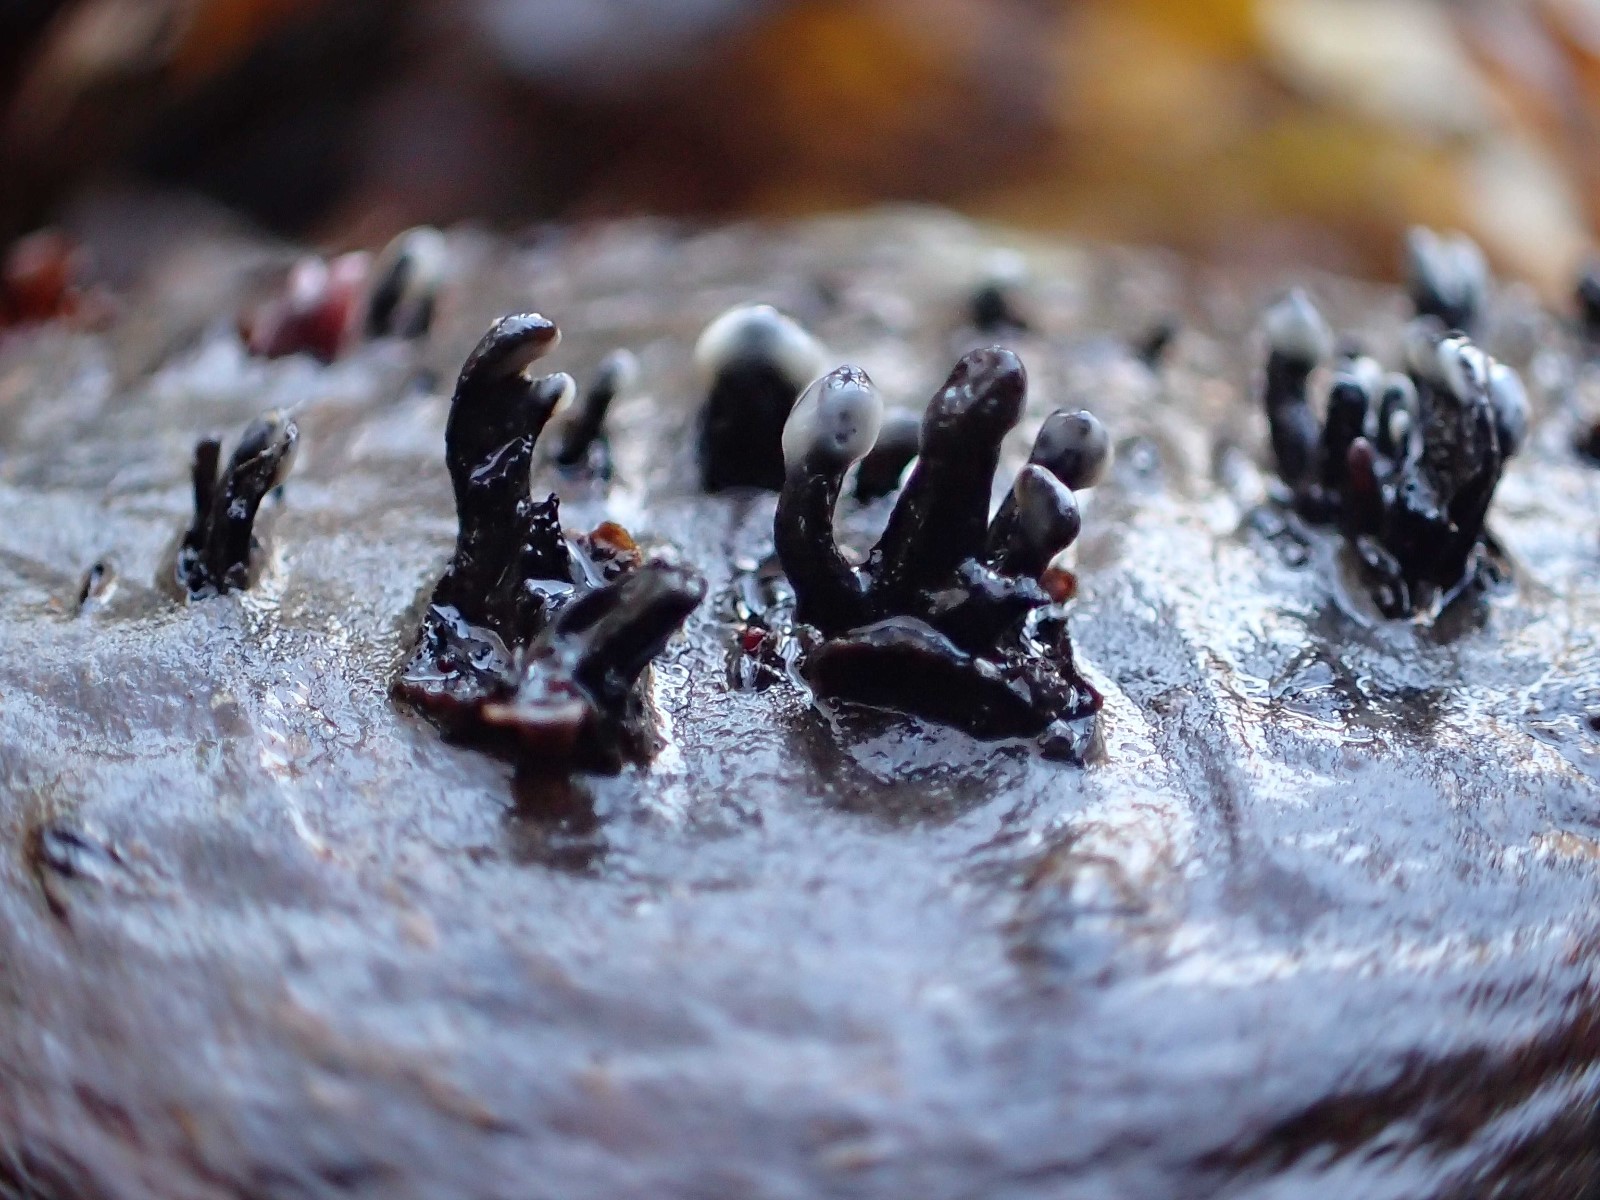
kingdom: Fungi
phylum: Ascomycota
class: Leotiomycetes
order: Helotiales
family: Bulgariaceae
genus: Holwaya
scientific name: Holwaya mucida
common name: lindeskive
